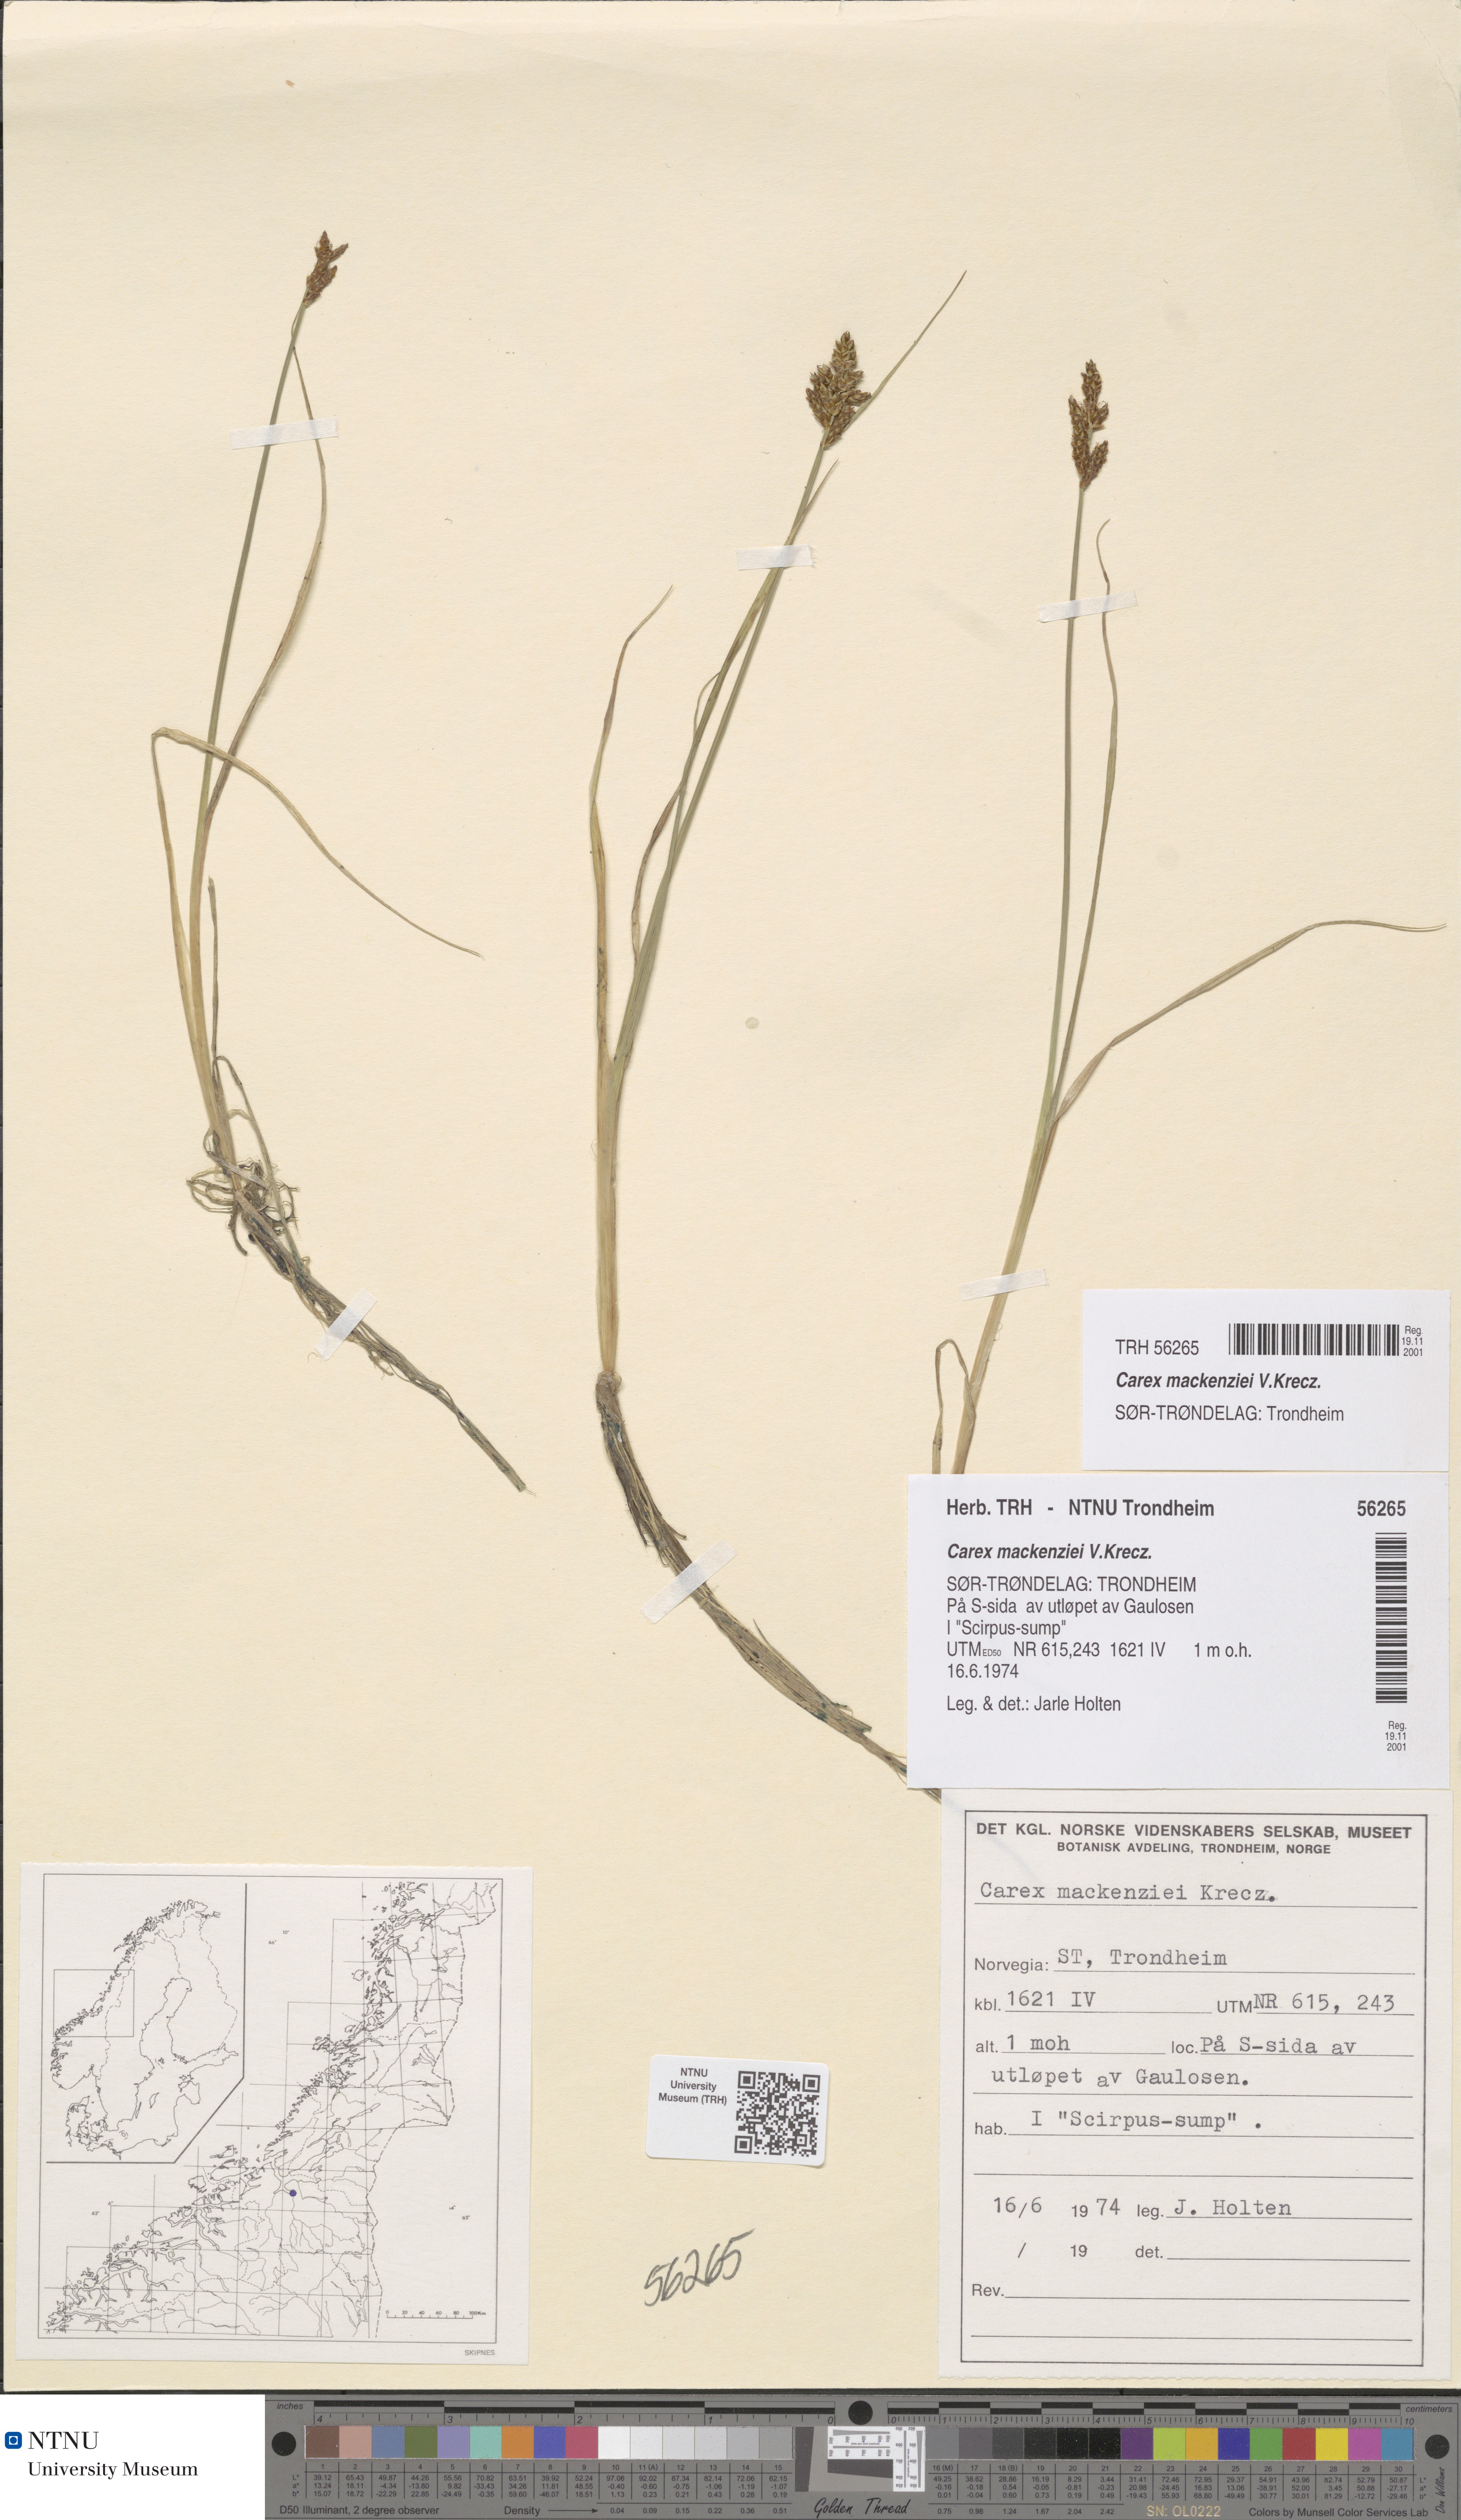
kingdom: Plantae
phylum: Tracheophyta
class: Liliopsida
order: Poales
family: Cyperaceae
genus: Carex
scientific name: Carex mackenziei
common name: Mackenzie's sedge
